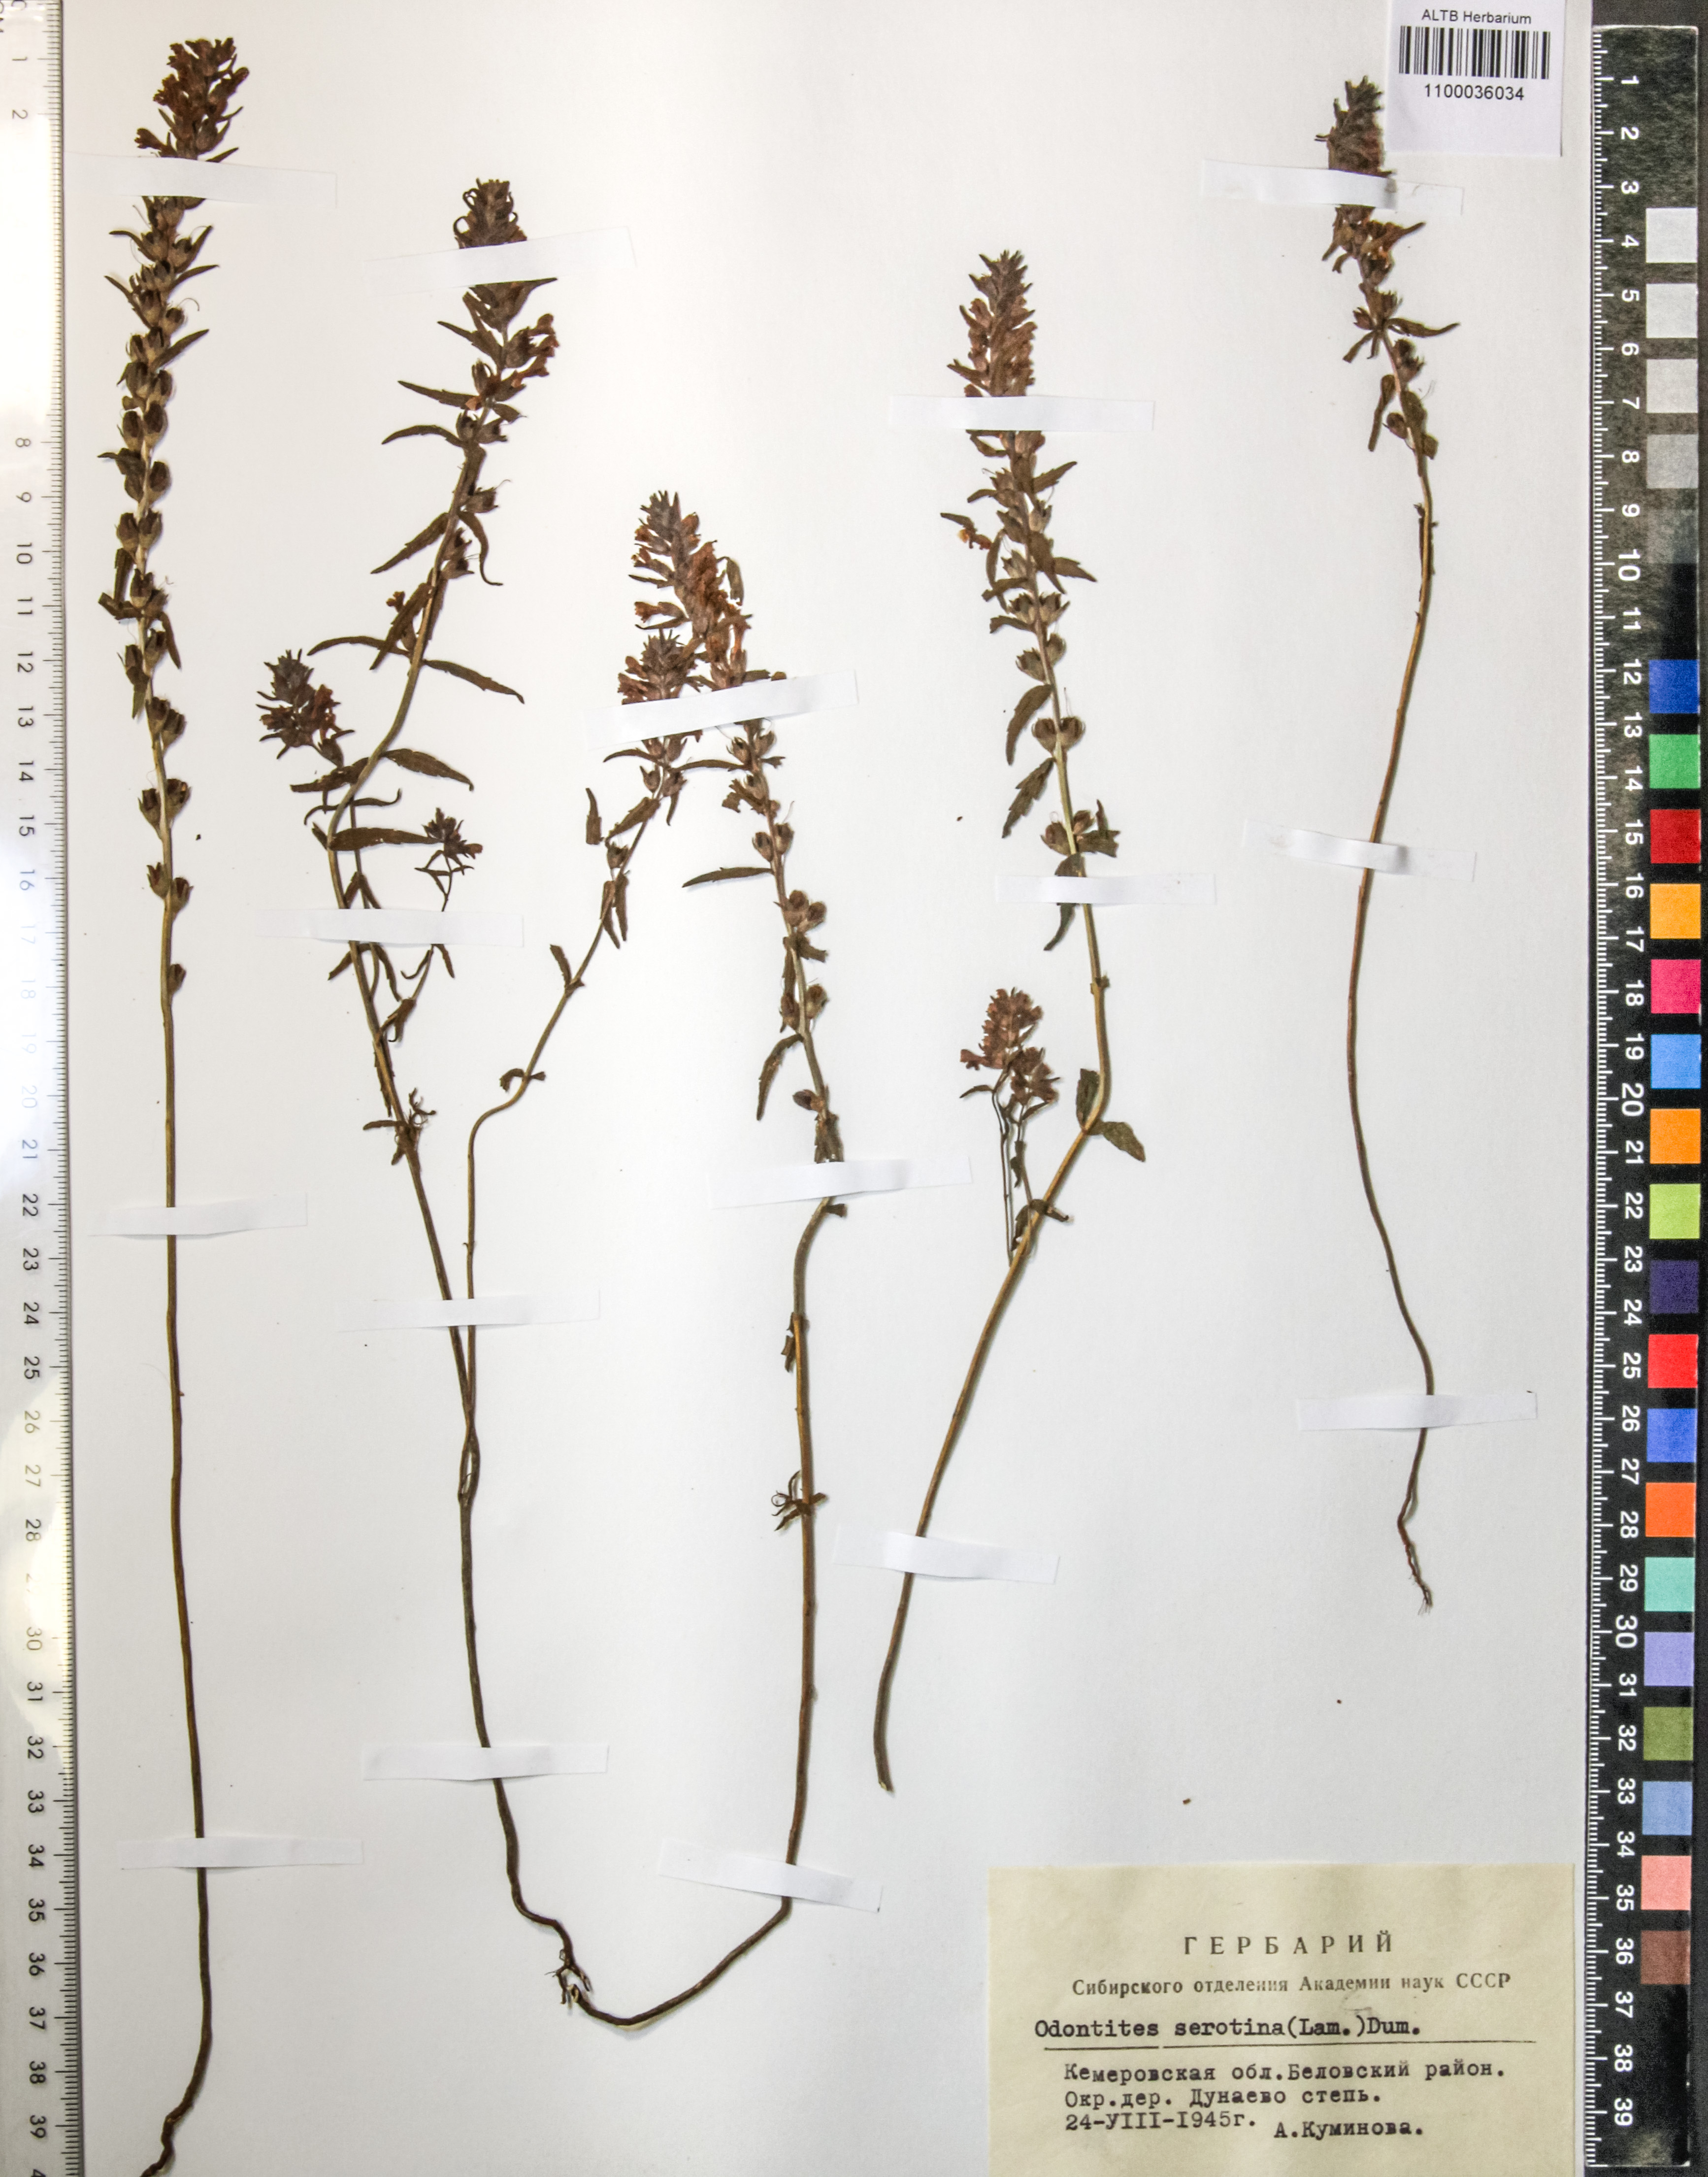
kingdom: Plantae
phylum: Tracheophyta
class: Magnoliopsida
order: Lamiales
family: Orobanchaceae
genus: Odontites
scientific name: Odontites vulgaris
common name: Broomrape
